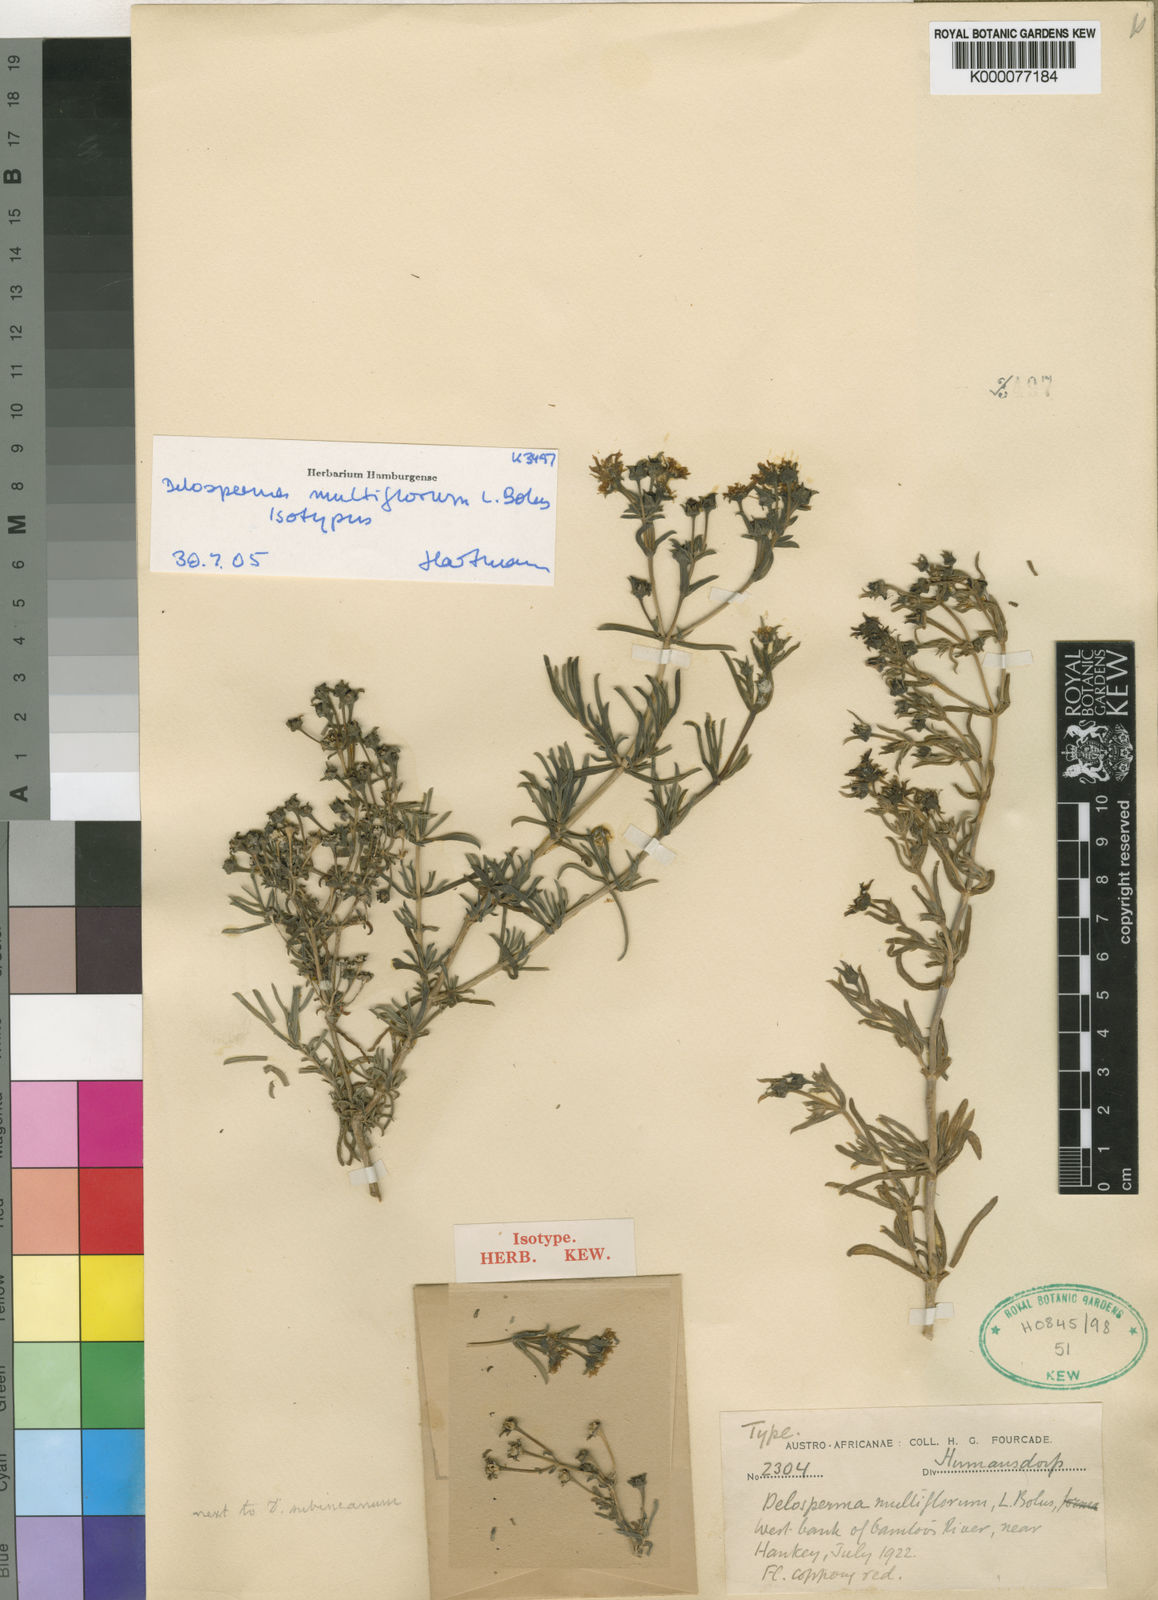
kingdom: Plantae
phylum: Tracheophyta
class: Magnoliopsida
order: Caryophyllales
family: Aizoaceae
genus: Delosperma
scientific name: Delosperma multiflorum
